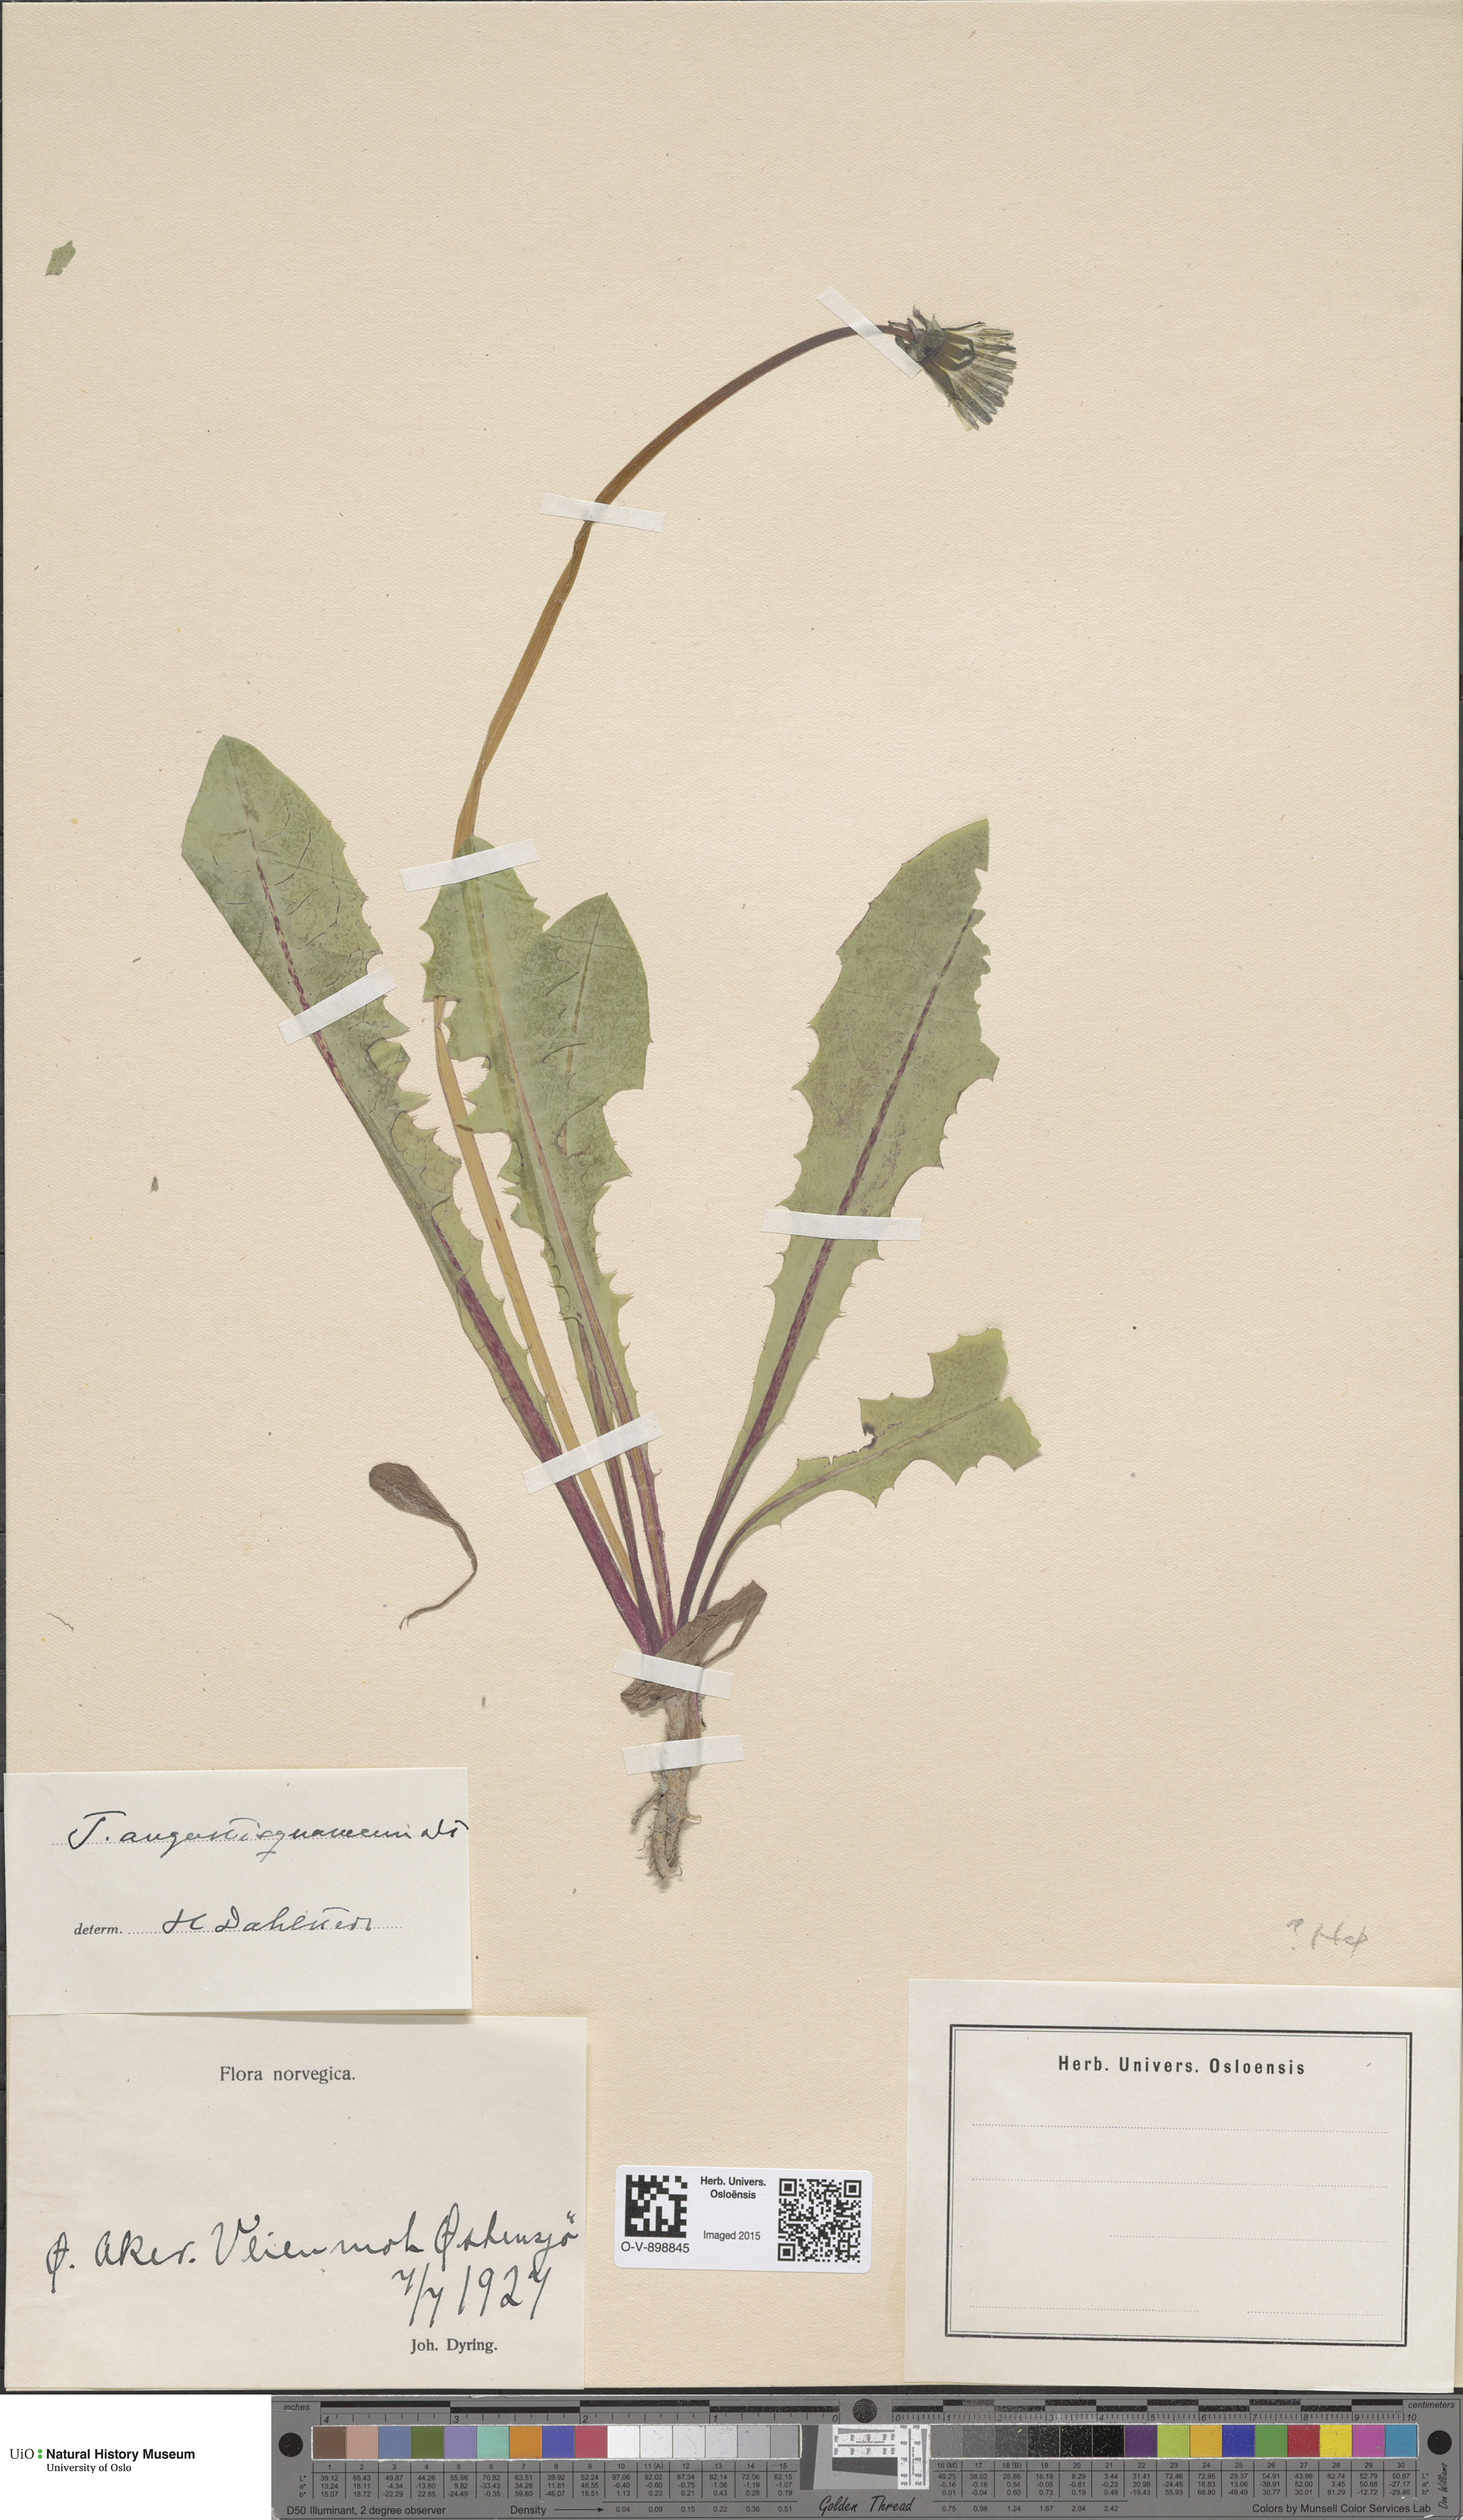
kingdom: Plantae
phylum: Tracheophyta
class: Magnoliopsida
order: Asterales
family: Asteraceae
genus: Taraxacum
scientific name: Taraxacum angustisquameum
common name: Multilobed dandelion
